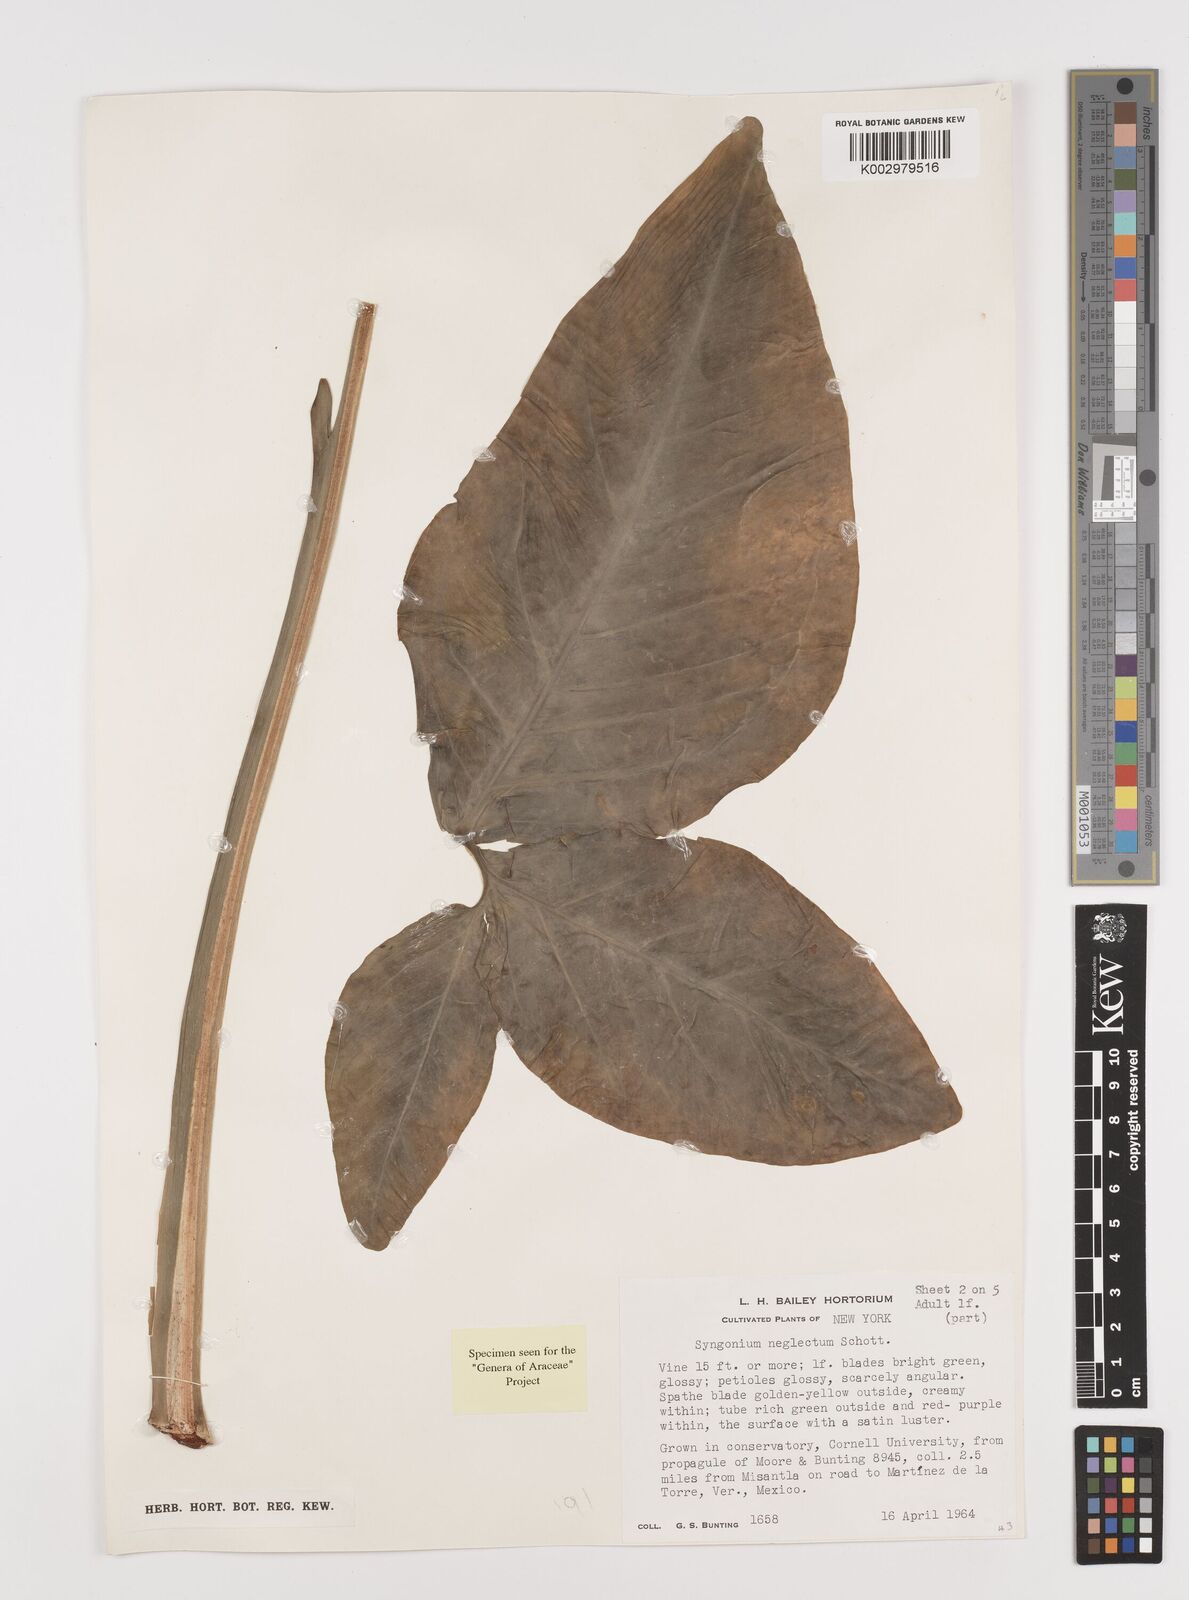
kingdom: Plantae
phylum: Tracheophyta
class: Liliopsida
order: Alismatales
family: Araceae
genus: Syngonium
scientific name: Syngonium neglectum
